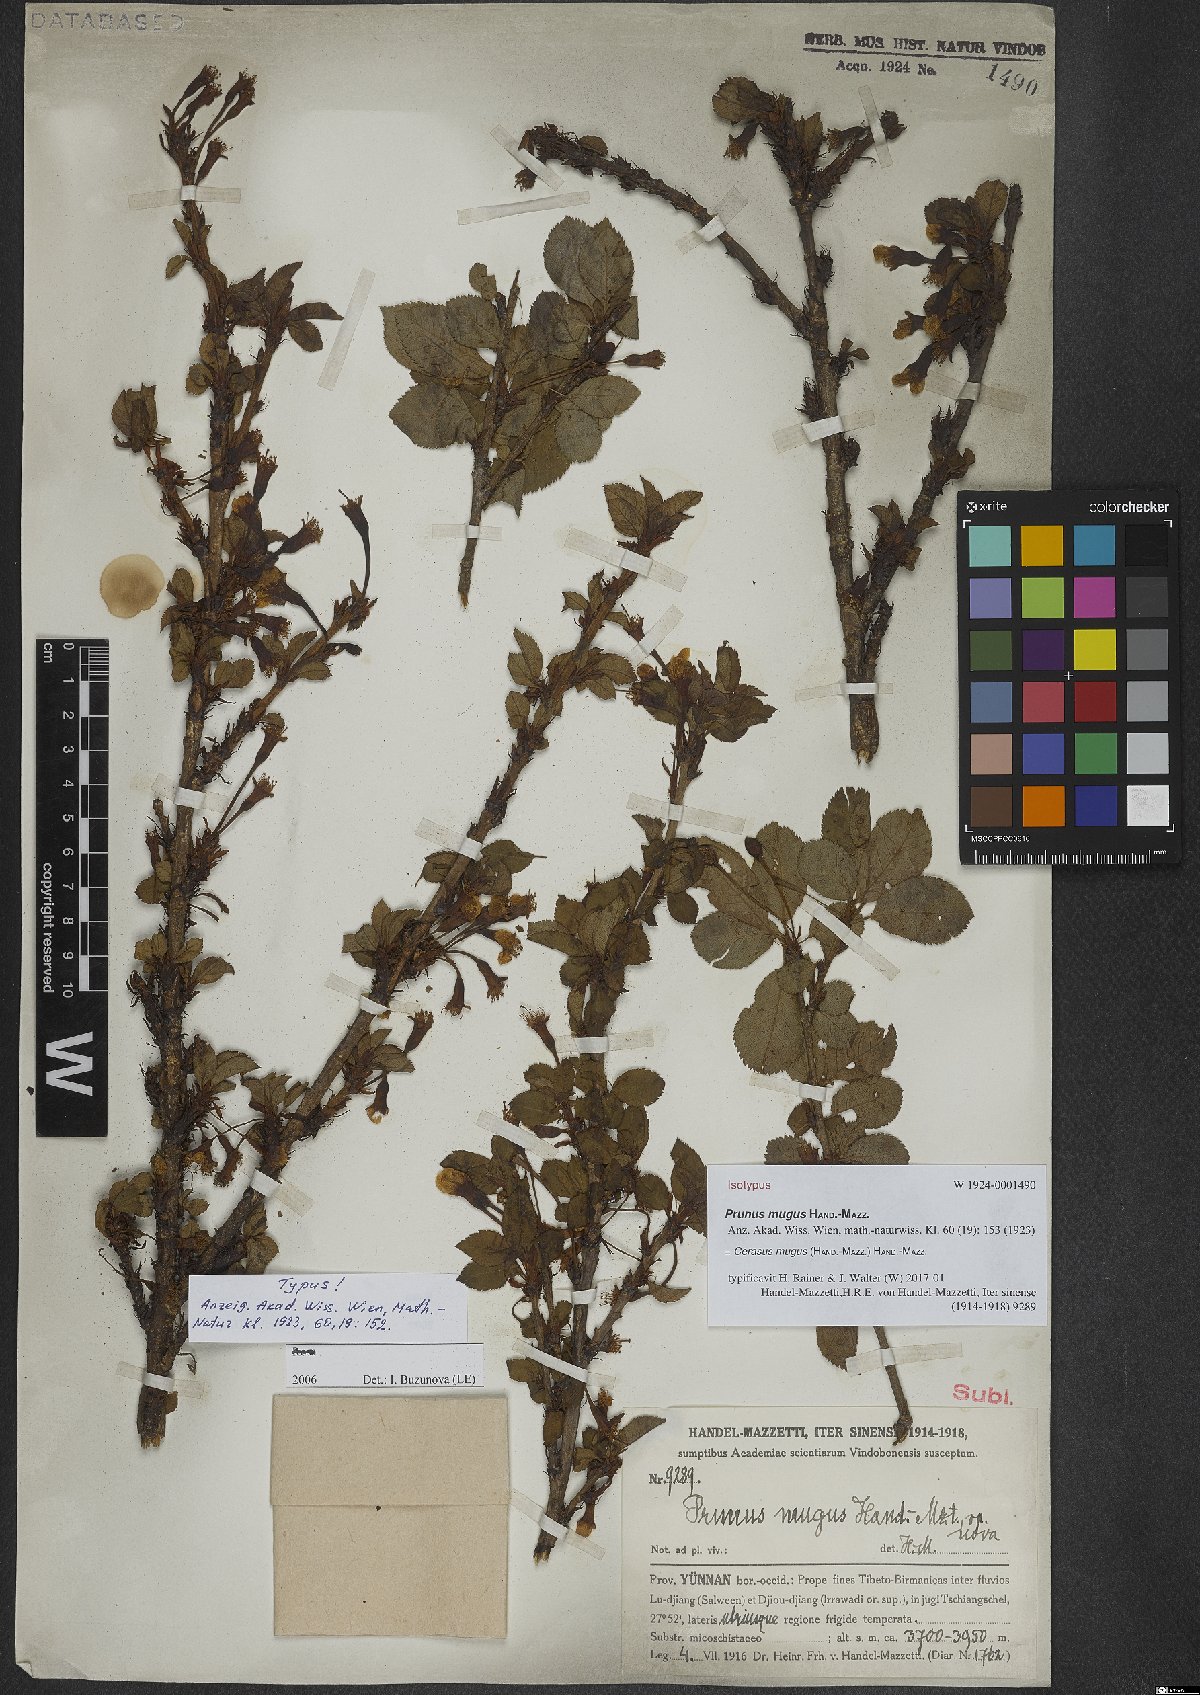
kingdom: Plantae
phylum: Tracheophyta
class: Magnoliopsida
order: Rosales
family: Rosaceae
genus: Prunus
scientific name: Prunus mugus
